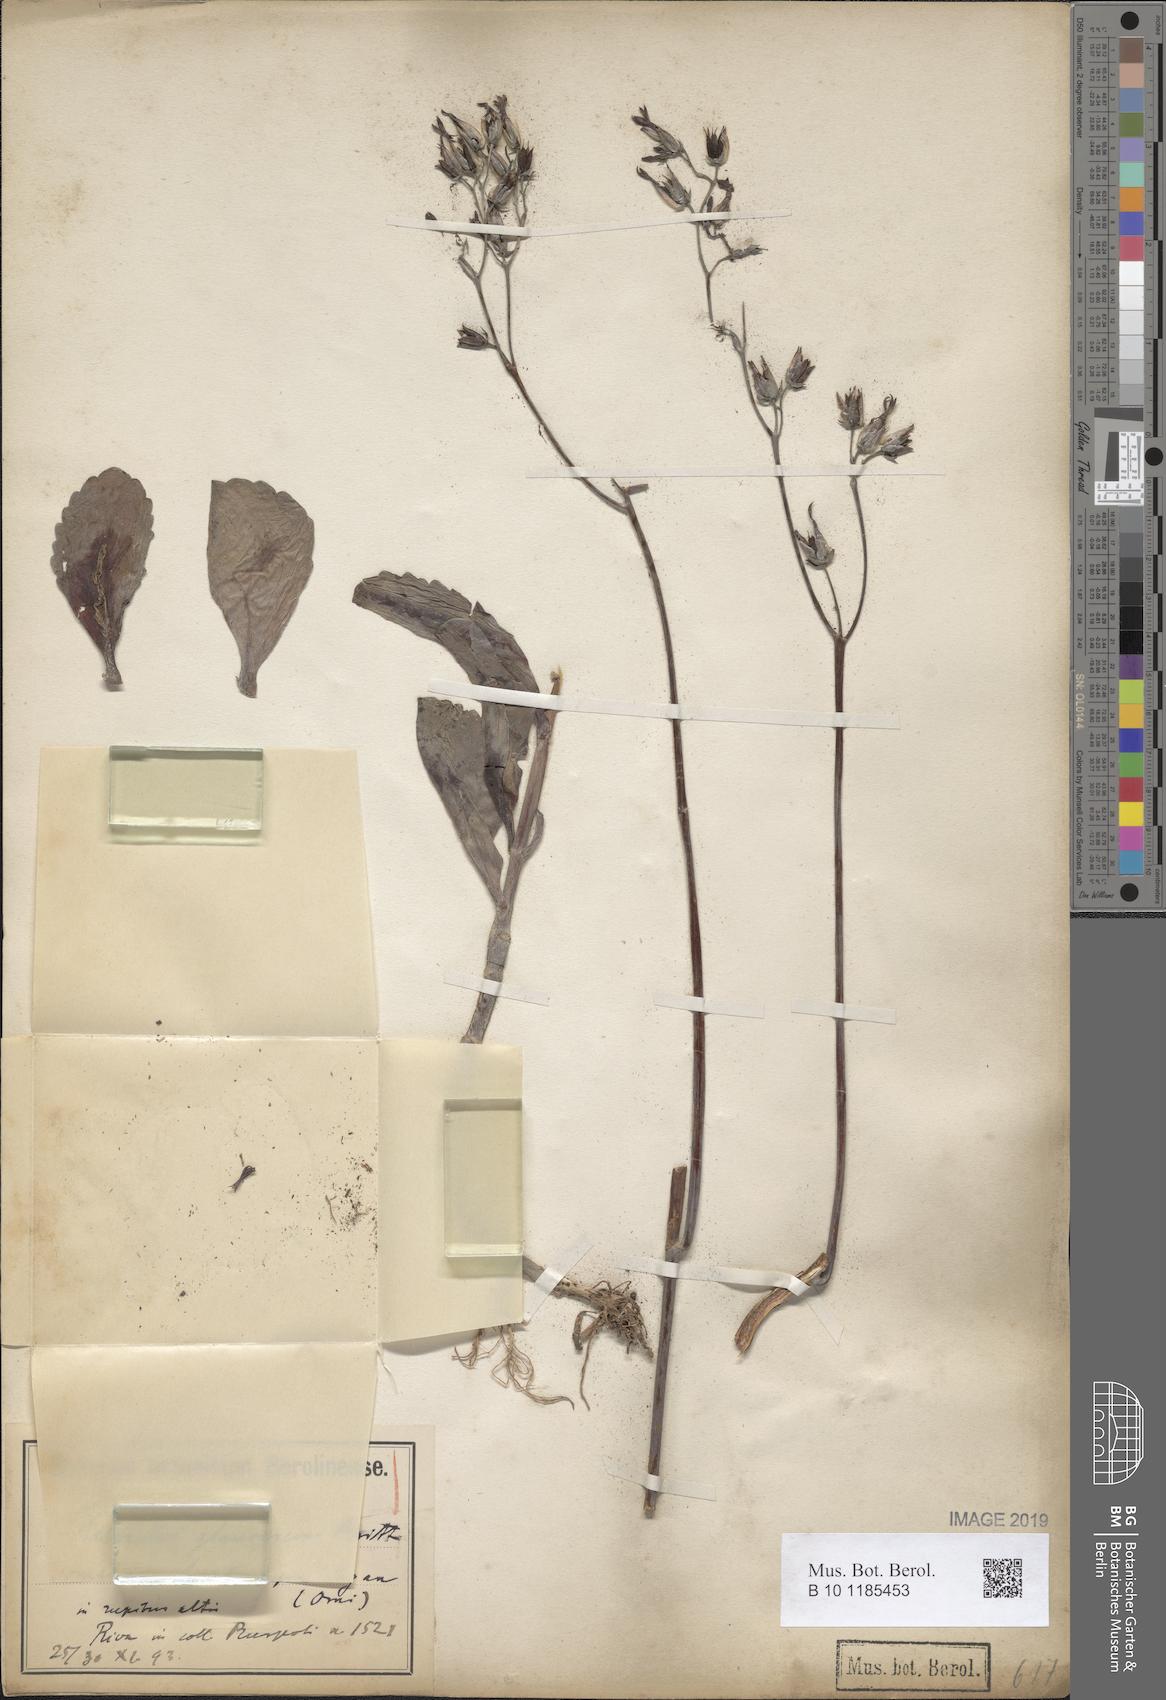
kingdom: Plantae
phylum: Tracheophyta
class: Magnoliopsida
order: Saxifragales
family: Crassulaceae
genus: Kalanchoe
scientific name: Kalanchoe glaucescens
